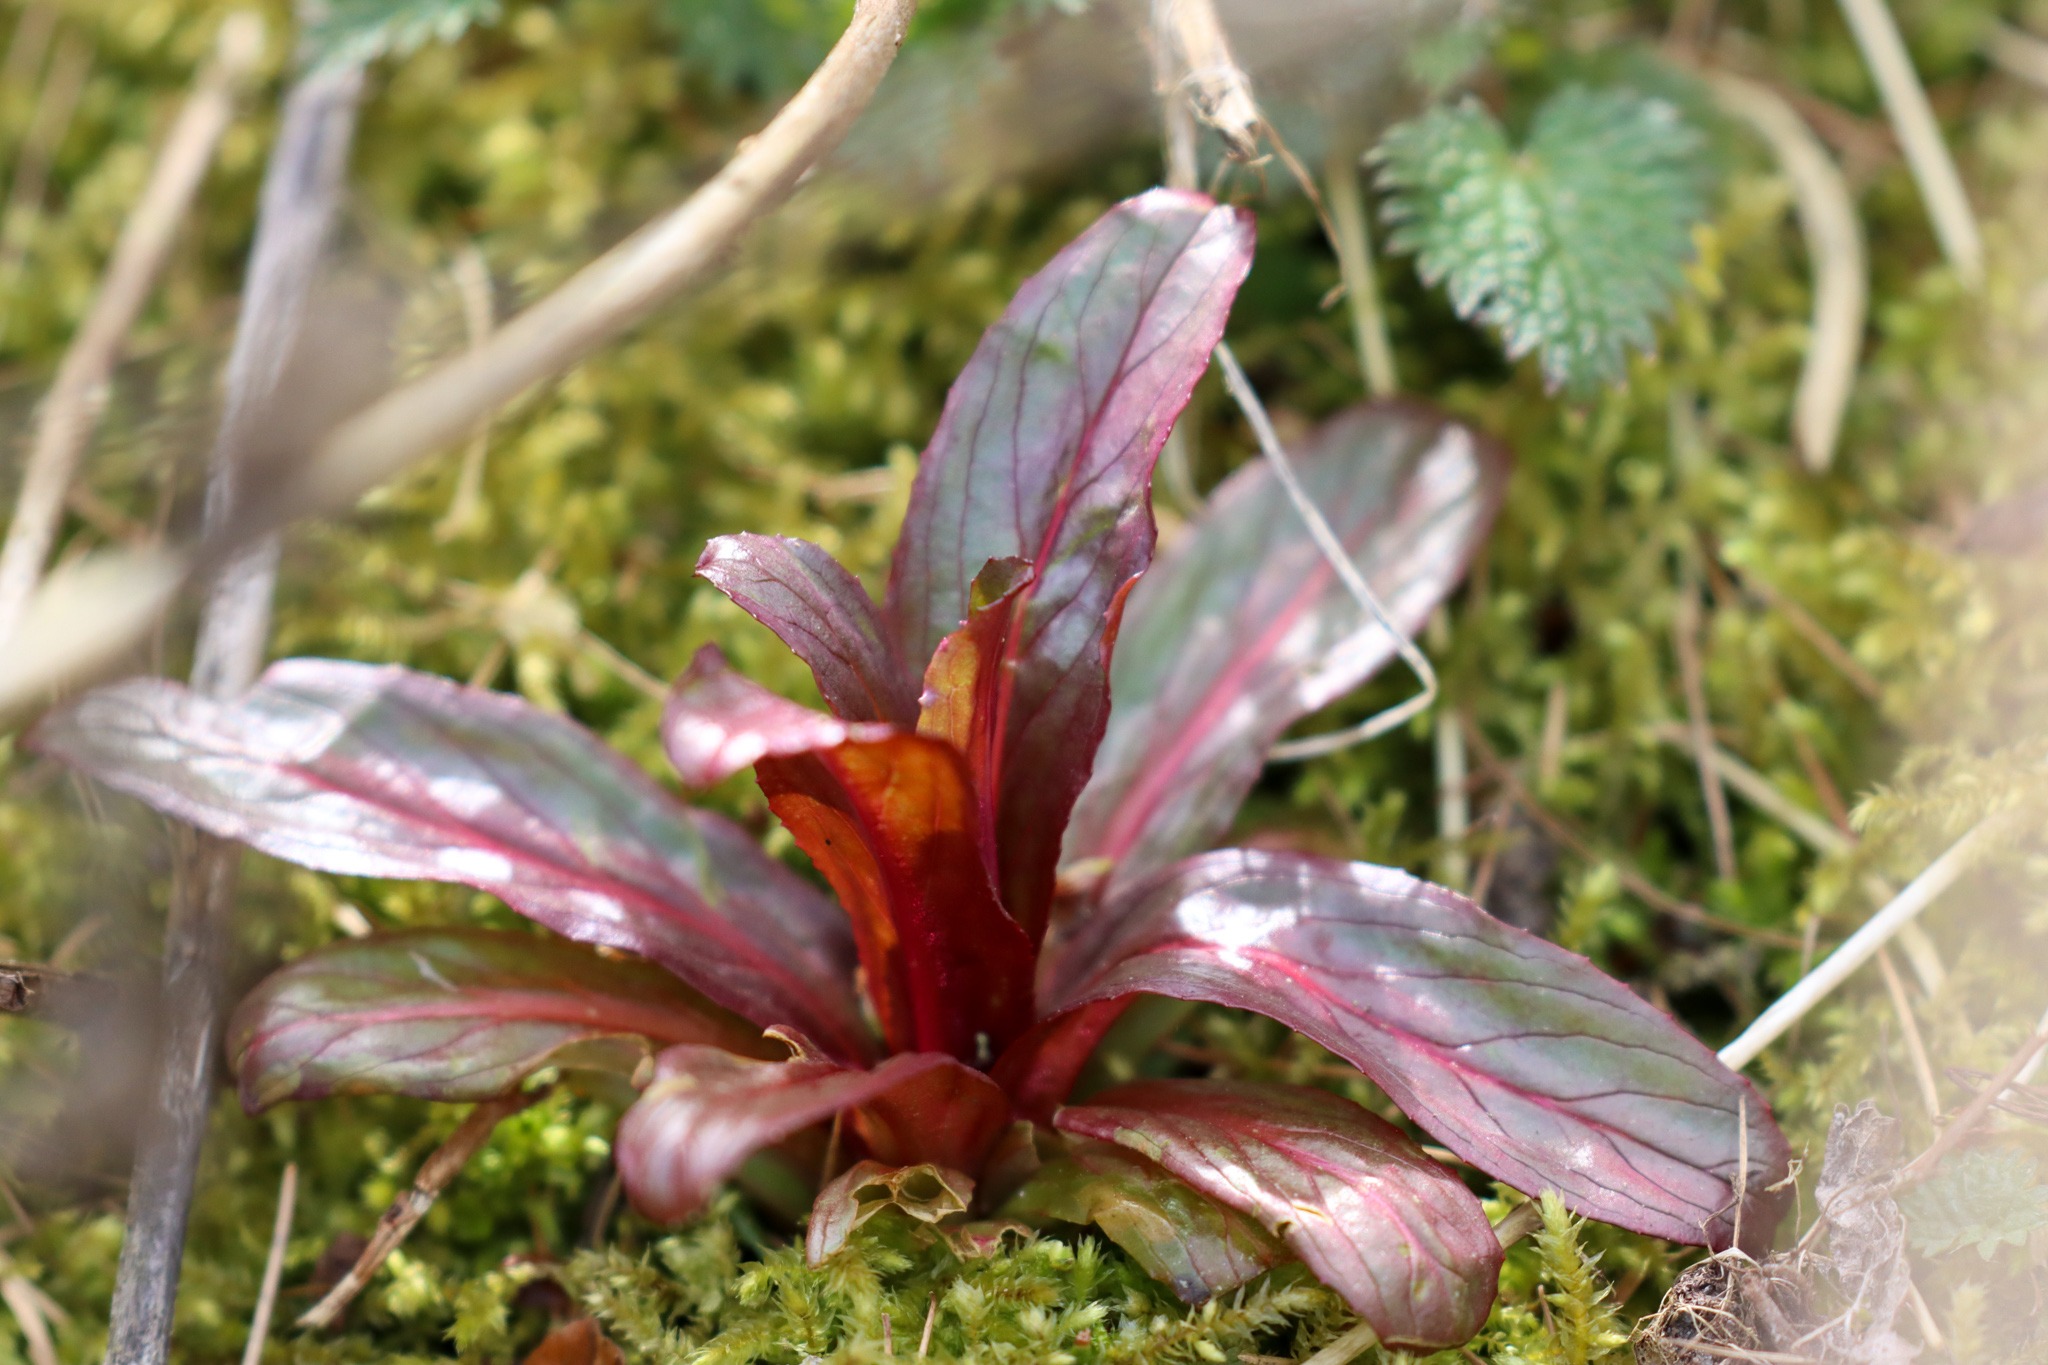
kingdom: Plantae
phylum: Tracheophyta
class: Magnoliopsida
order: Myrtales
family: Onagraceae
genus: Epilobium
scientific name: Epilobium
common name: Dueurtslægten
